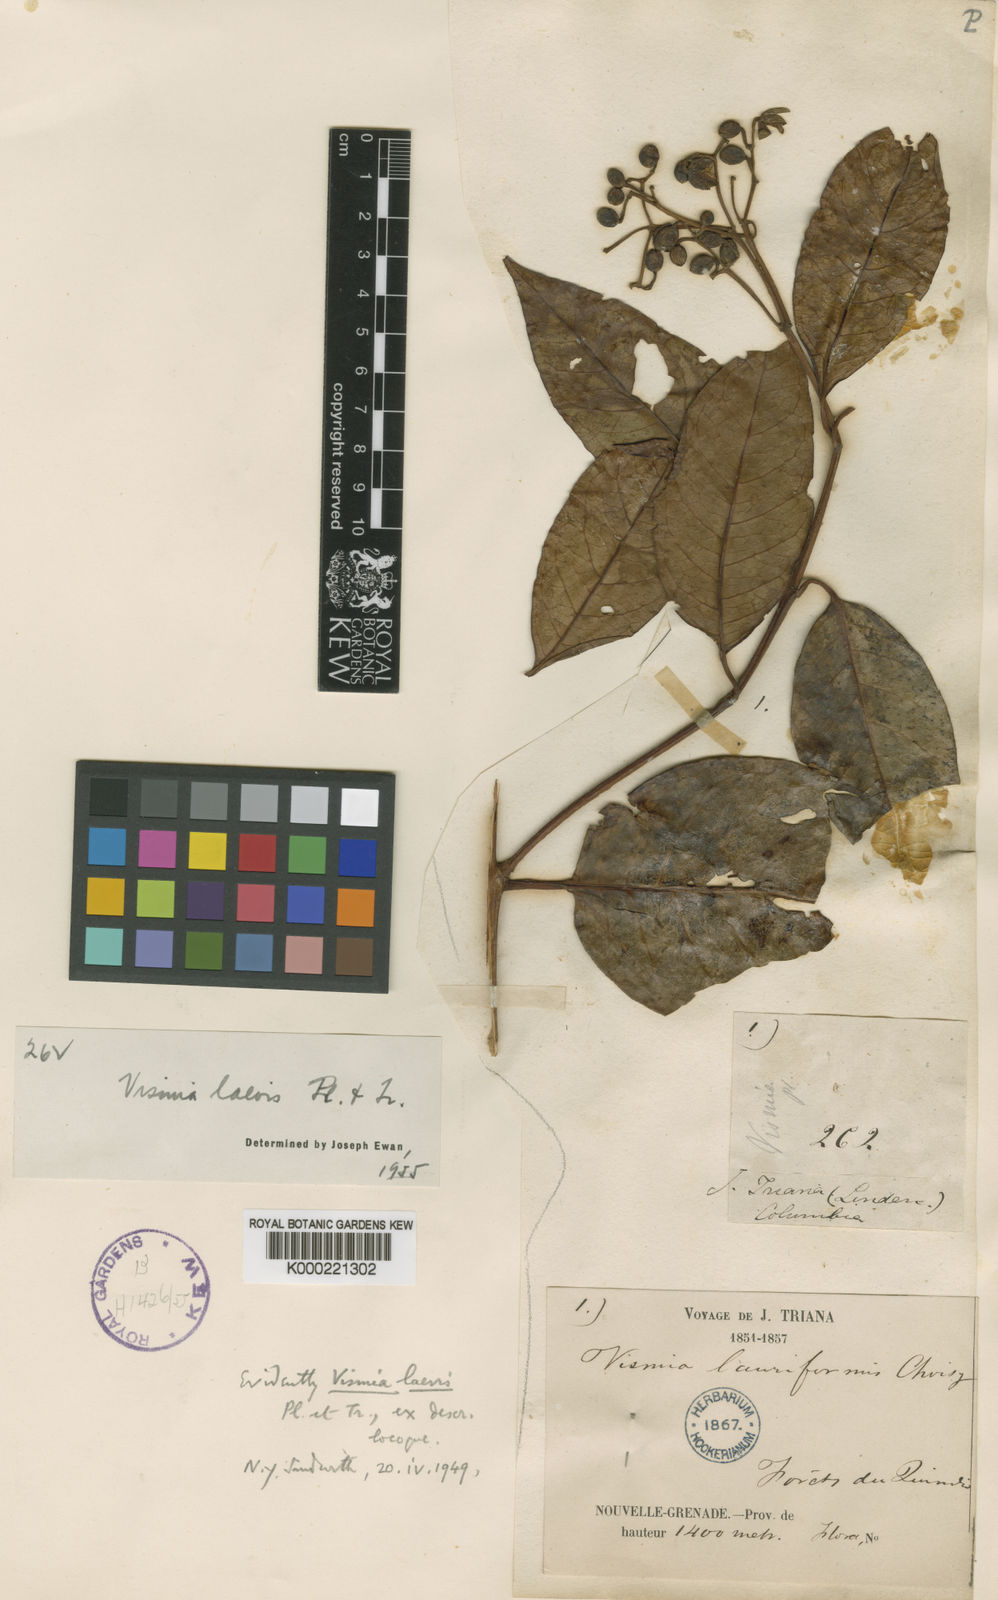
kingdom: Plantae
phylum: Tracheophyta
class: Magnoliopsida
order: Malpighiales
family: Hypericaceae
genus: Vismia
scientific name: Vismia laevis
